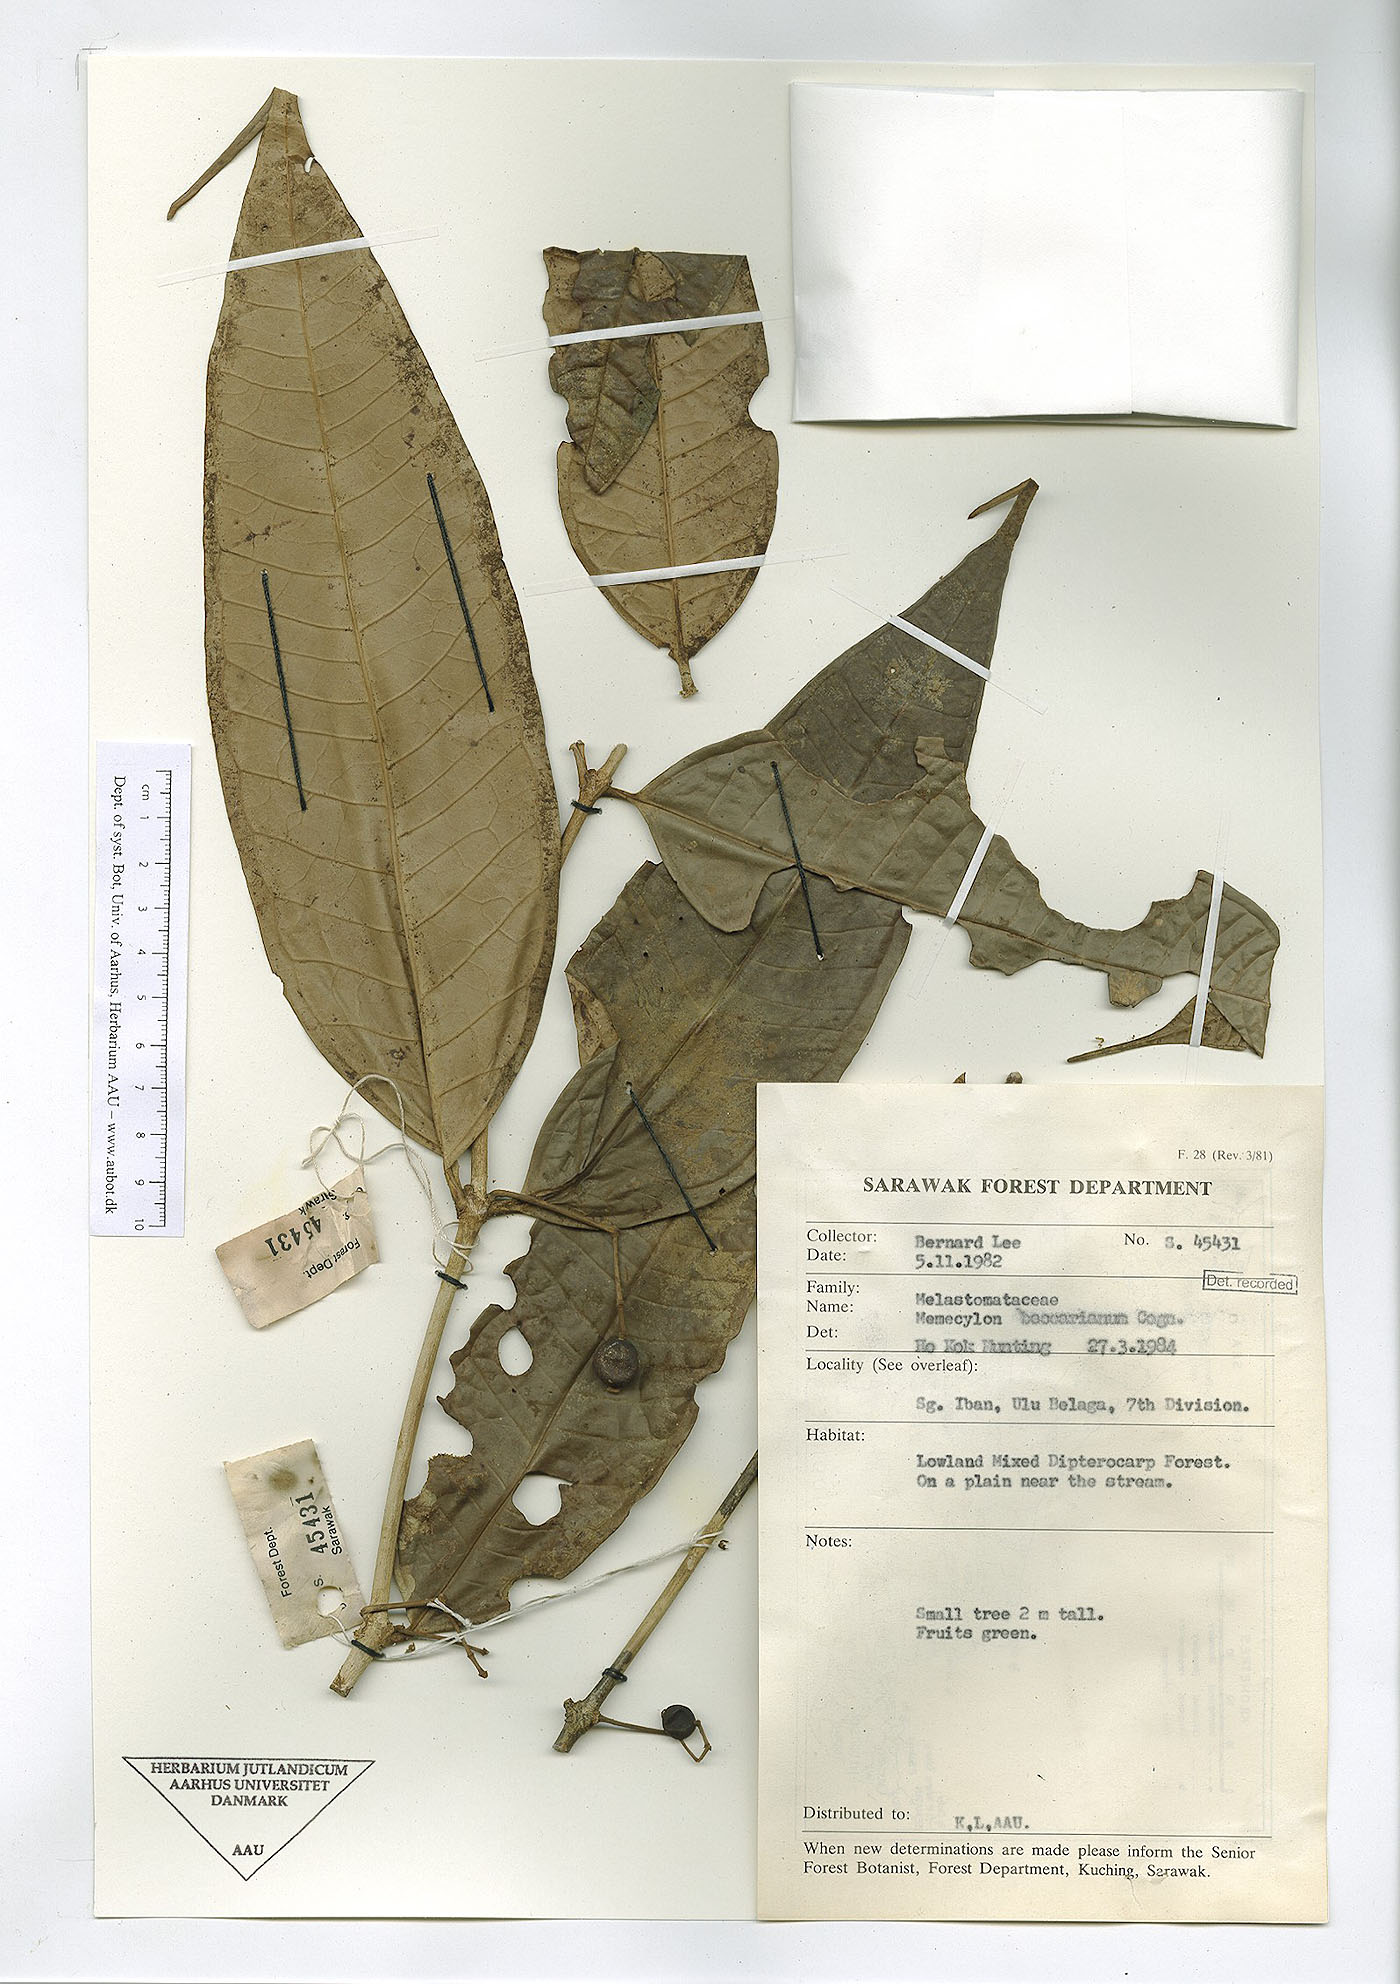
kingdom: Plantae
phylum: Tracheophyta
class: Magnoliopsida
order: Myrtales
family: Melastomataceae
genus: Memecylon
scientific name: Memecylon beccarianum
